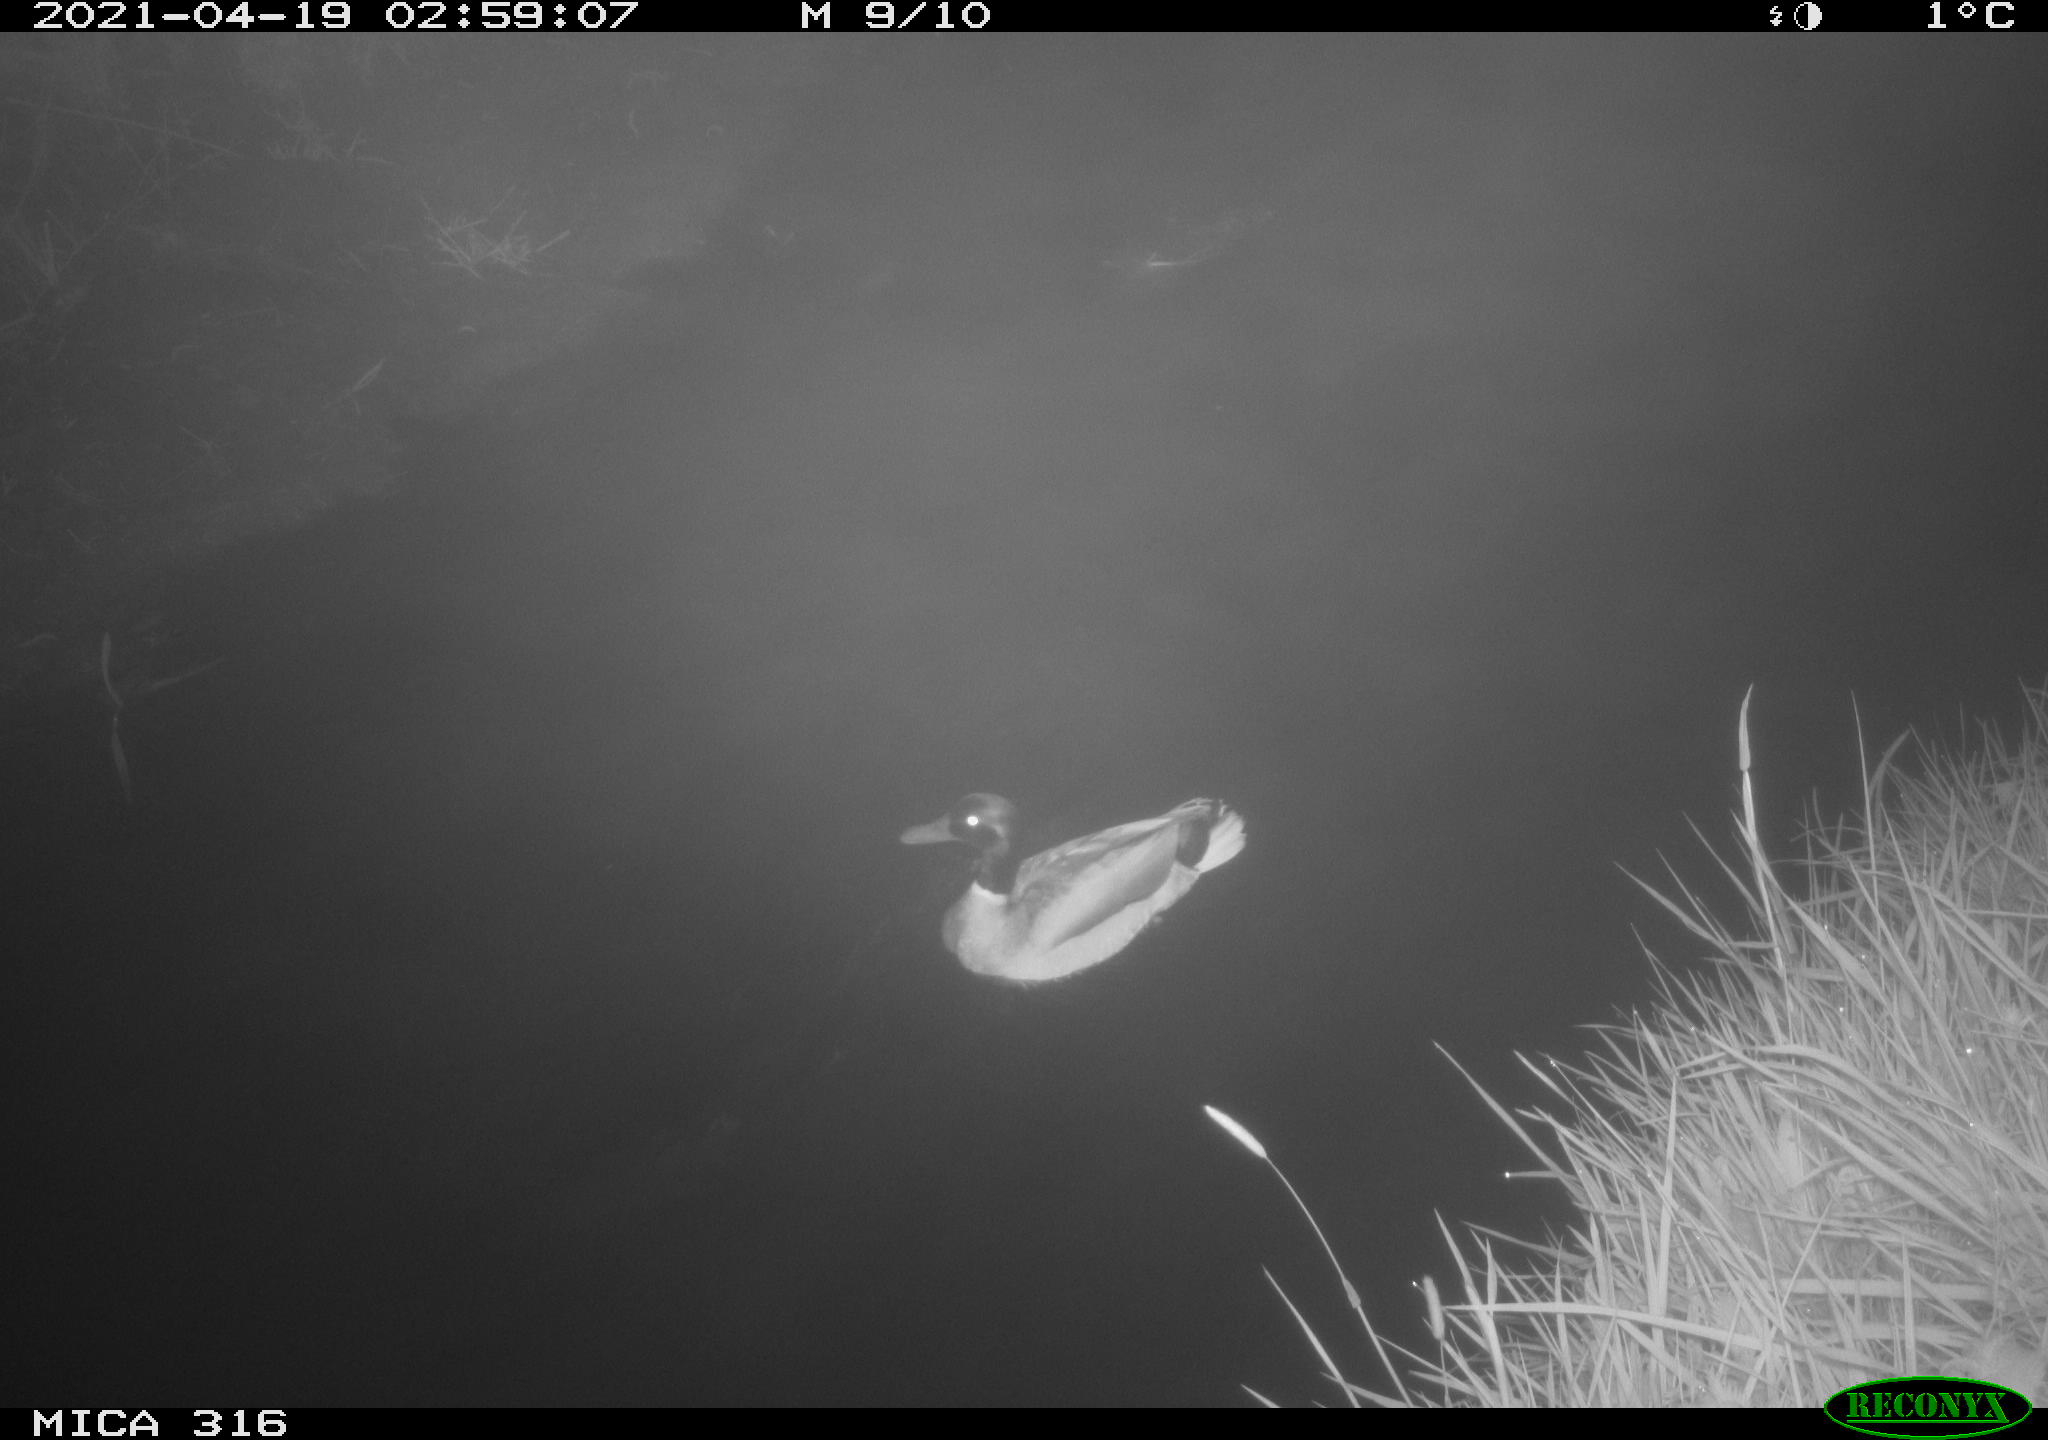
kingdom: Animalia
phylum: Chordata
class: Aves
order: Anseriformes
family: Anatidae
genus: Anas
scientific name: Anas platyrhynchos
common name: Mallard
